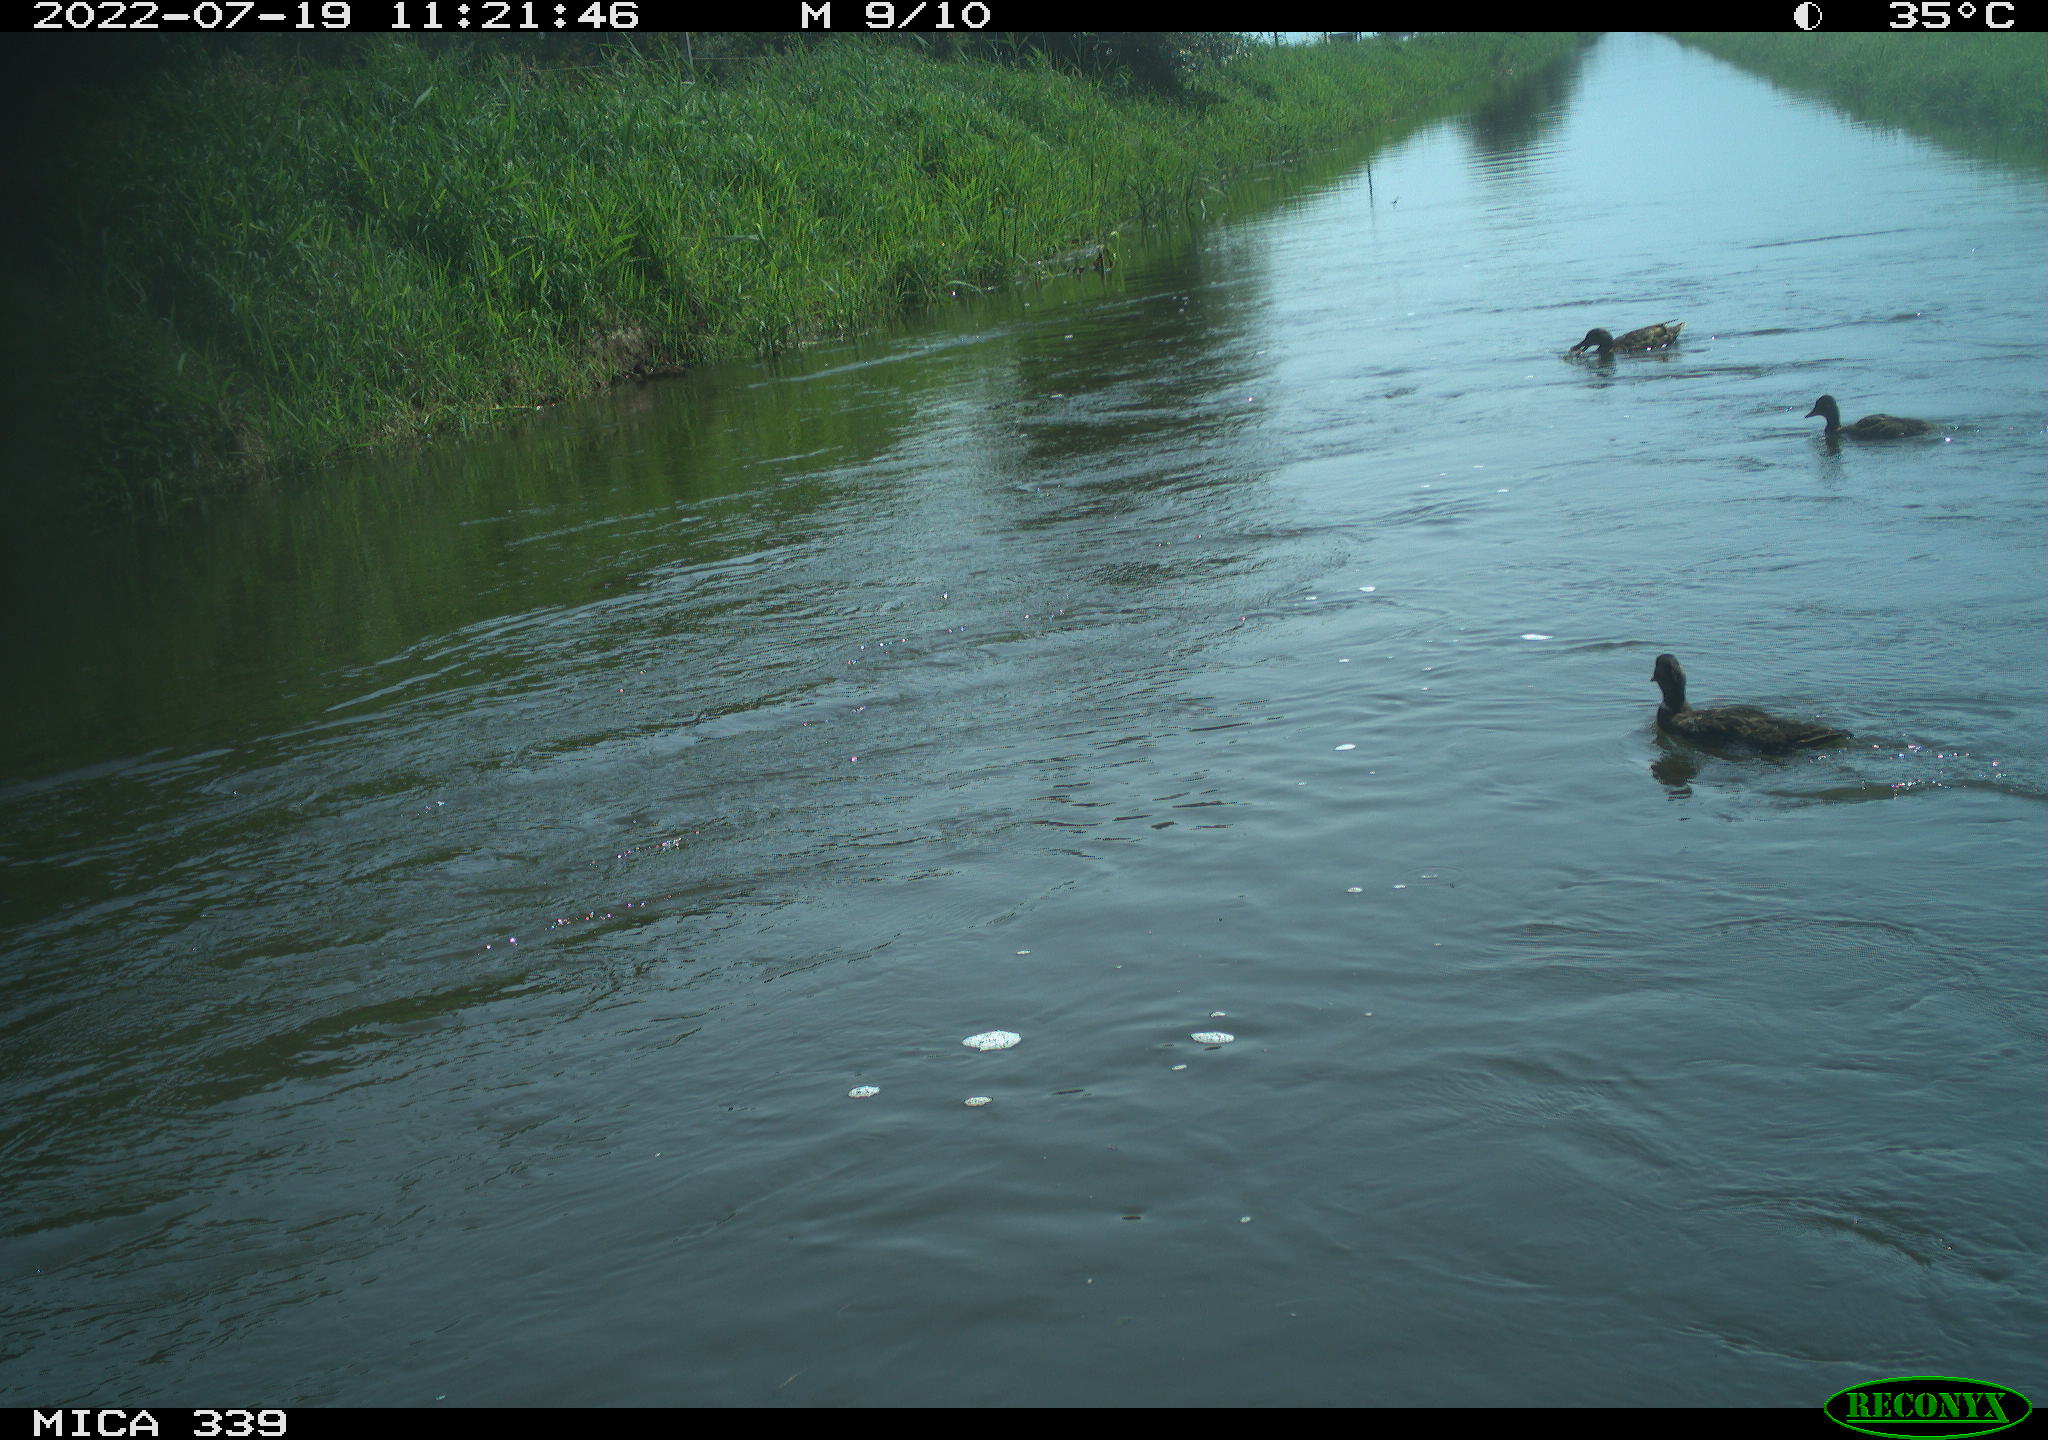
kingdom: Animalia
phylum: Chordata
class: Aves
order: Anseriformes
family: Anatidae
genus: Anas
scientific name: Anas platyrhynchos
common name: Mallard
